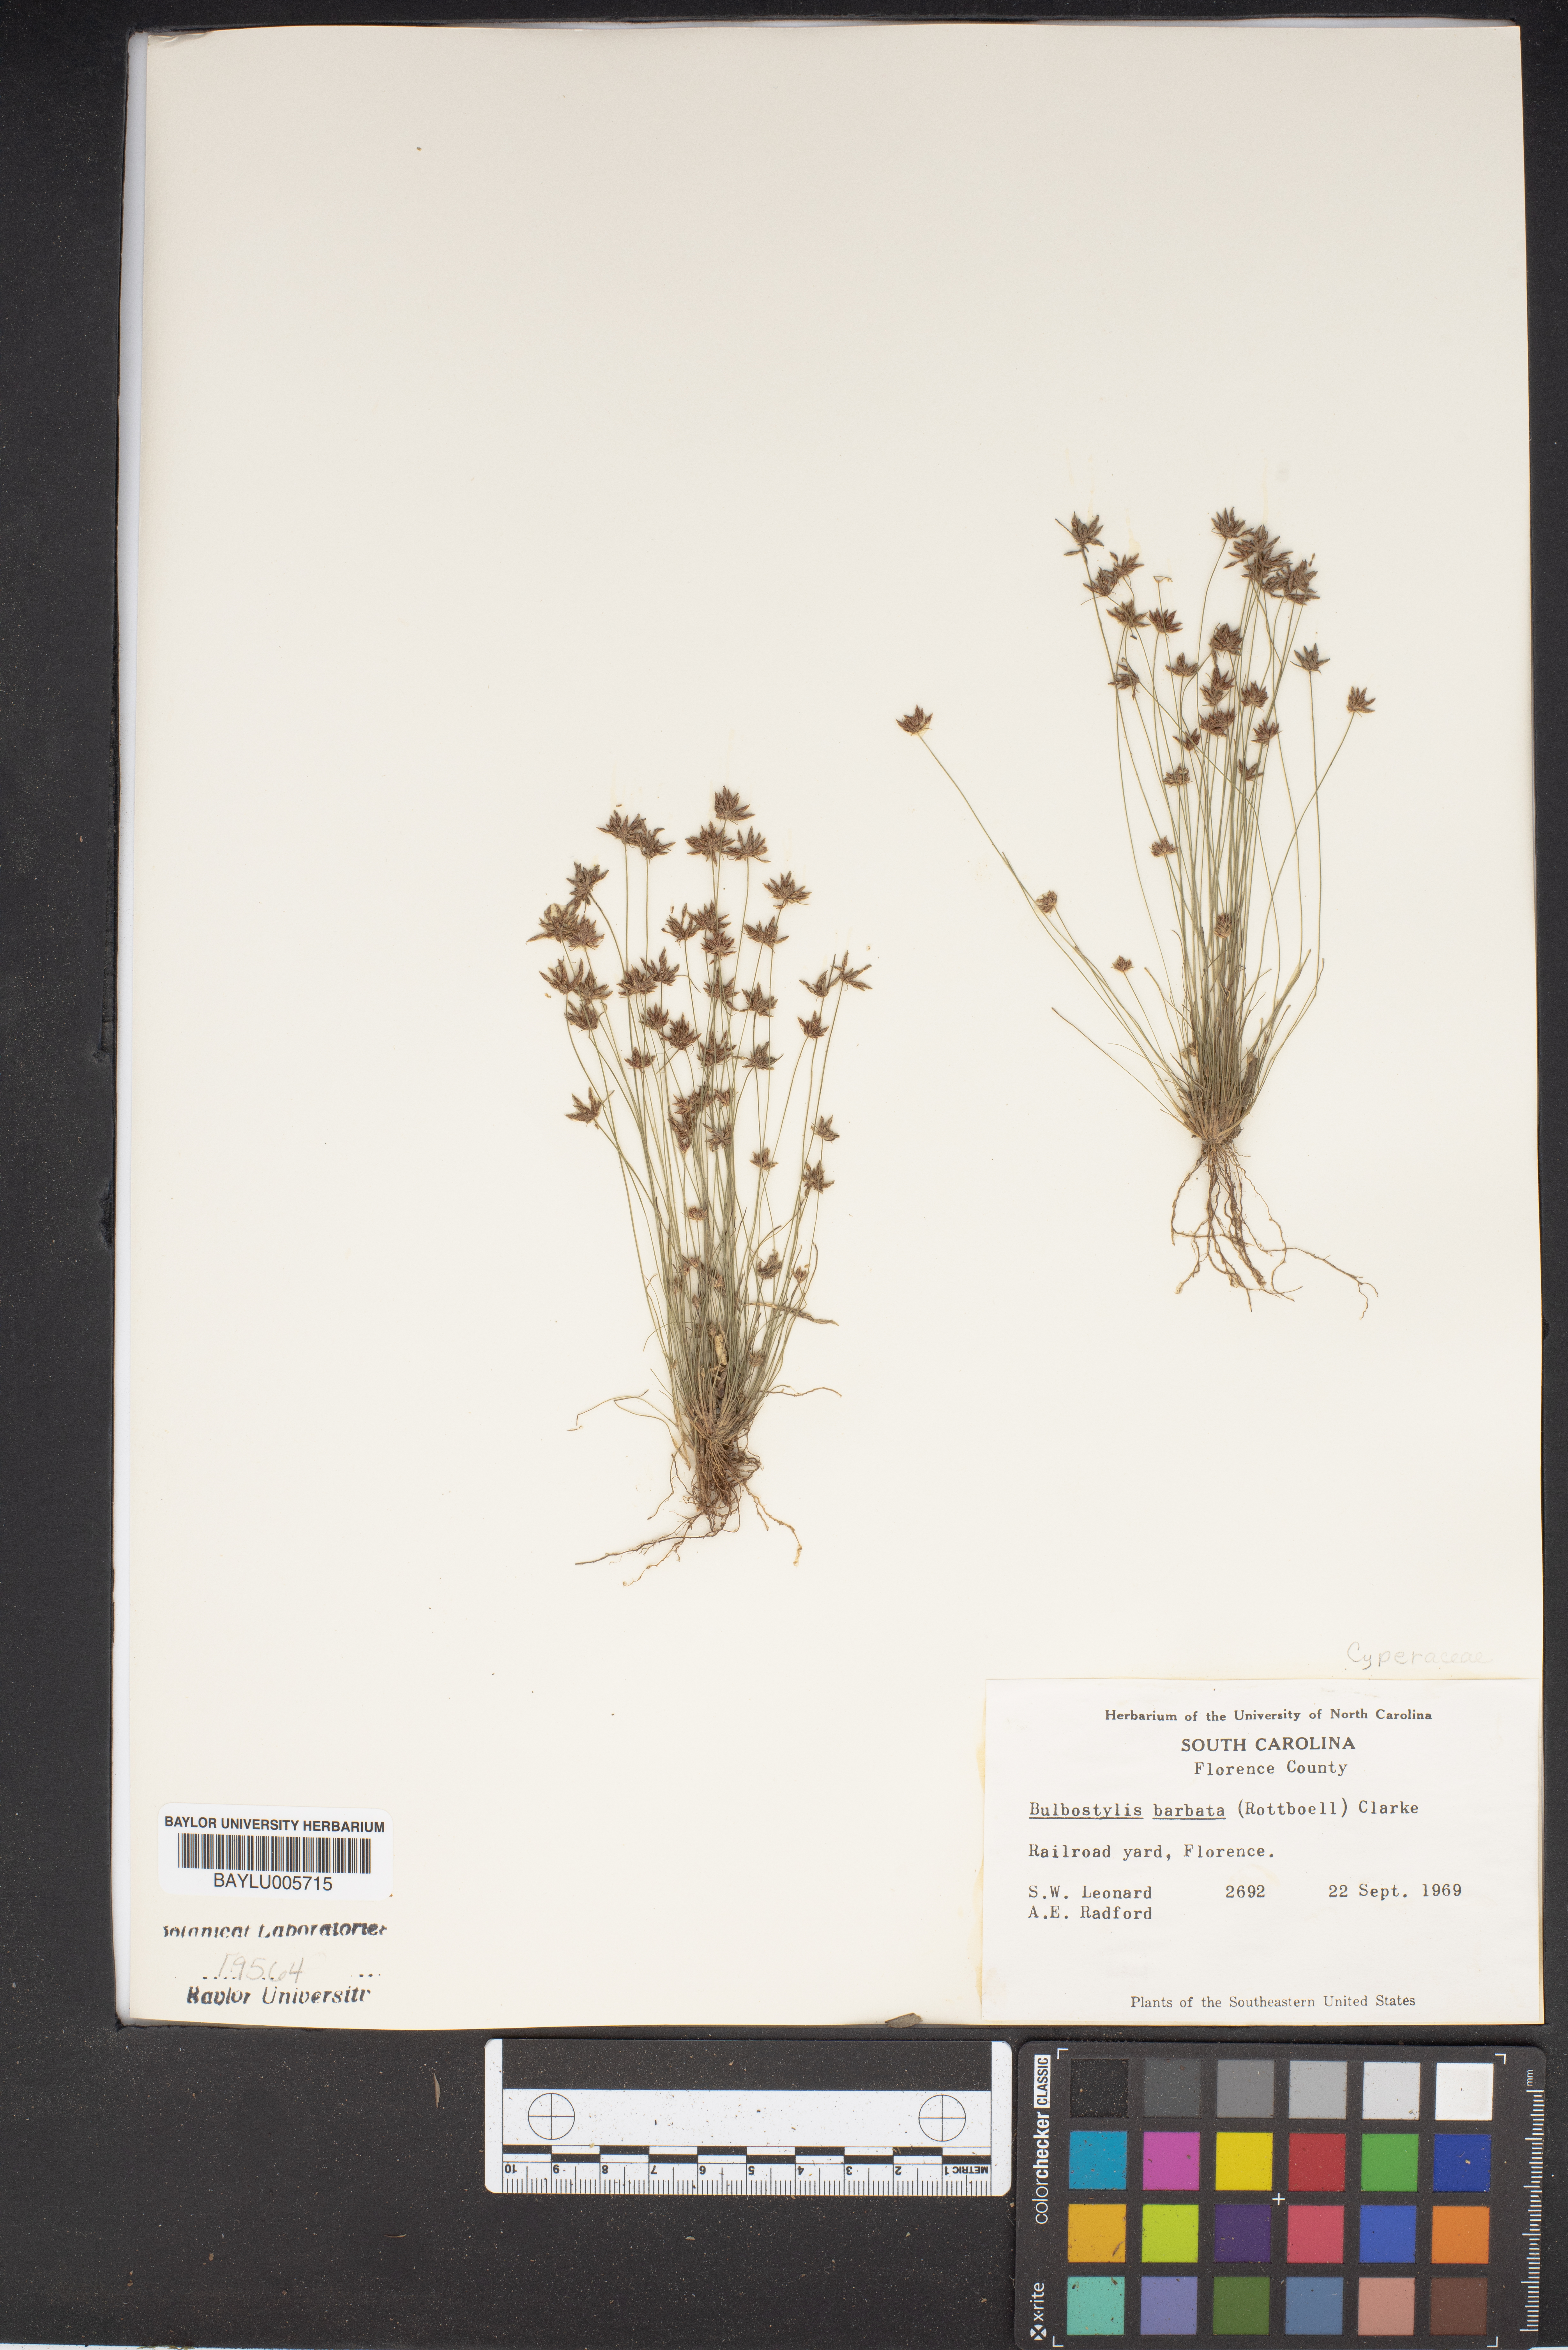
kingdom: Plantae
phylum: Tracheophyta
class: Liliopsida
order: Poales
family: Cyperaceae
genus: Bulbostylis
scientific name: Bulbostylis barbata
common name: Watergrass
